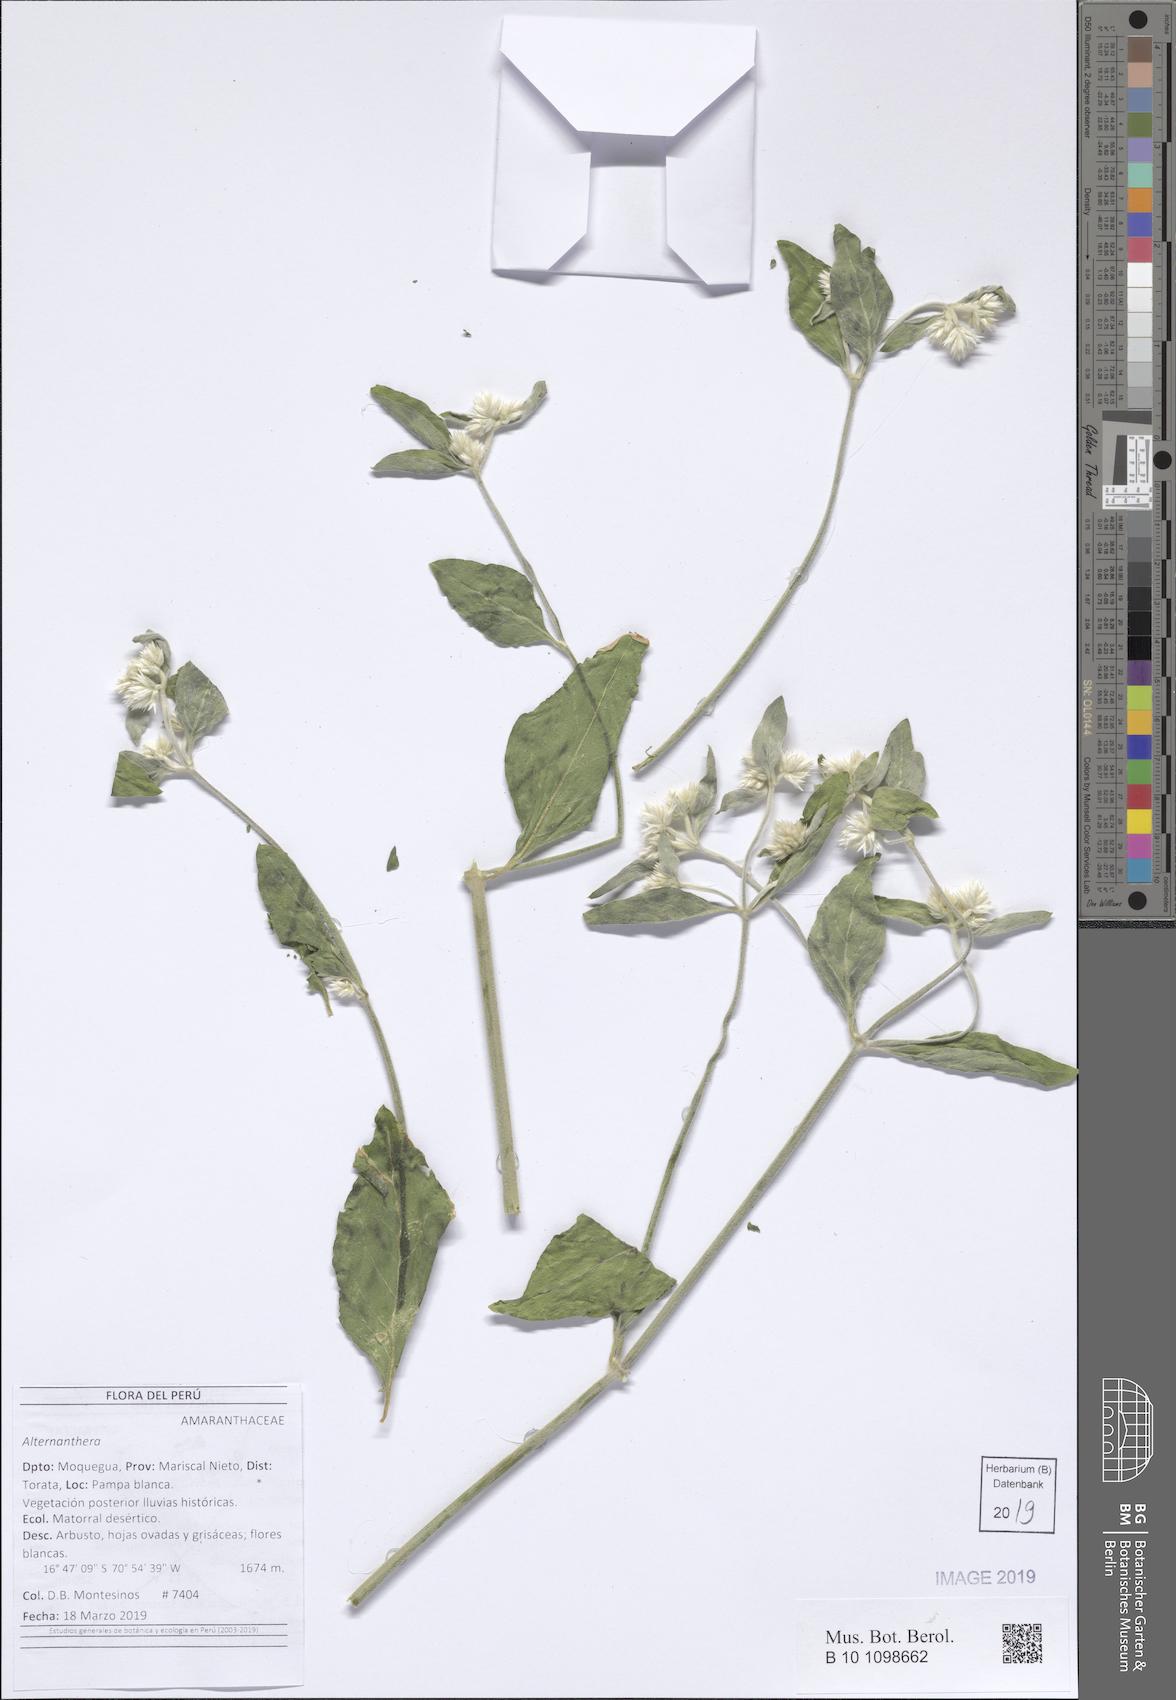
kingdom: Plantae
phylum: Tracheophyta
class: Magnoliopsida
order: Caryophyllales
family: Amaranthaceae
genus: Alternanthera
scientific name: Alternanthera
